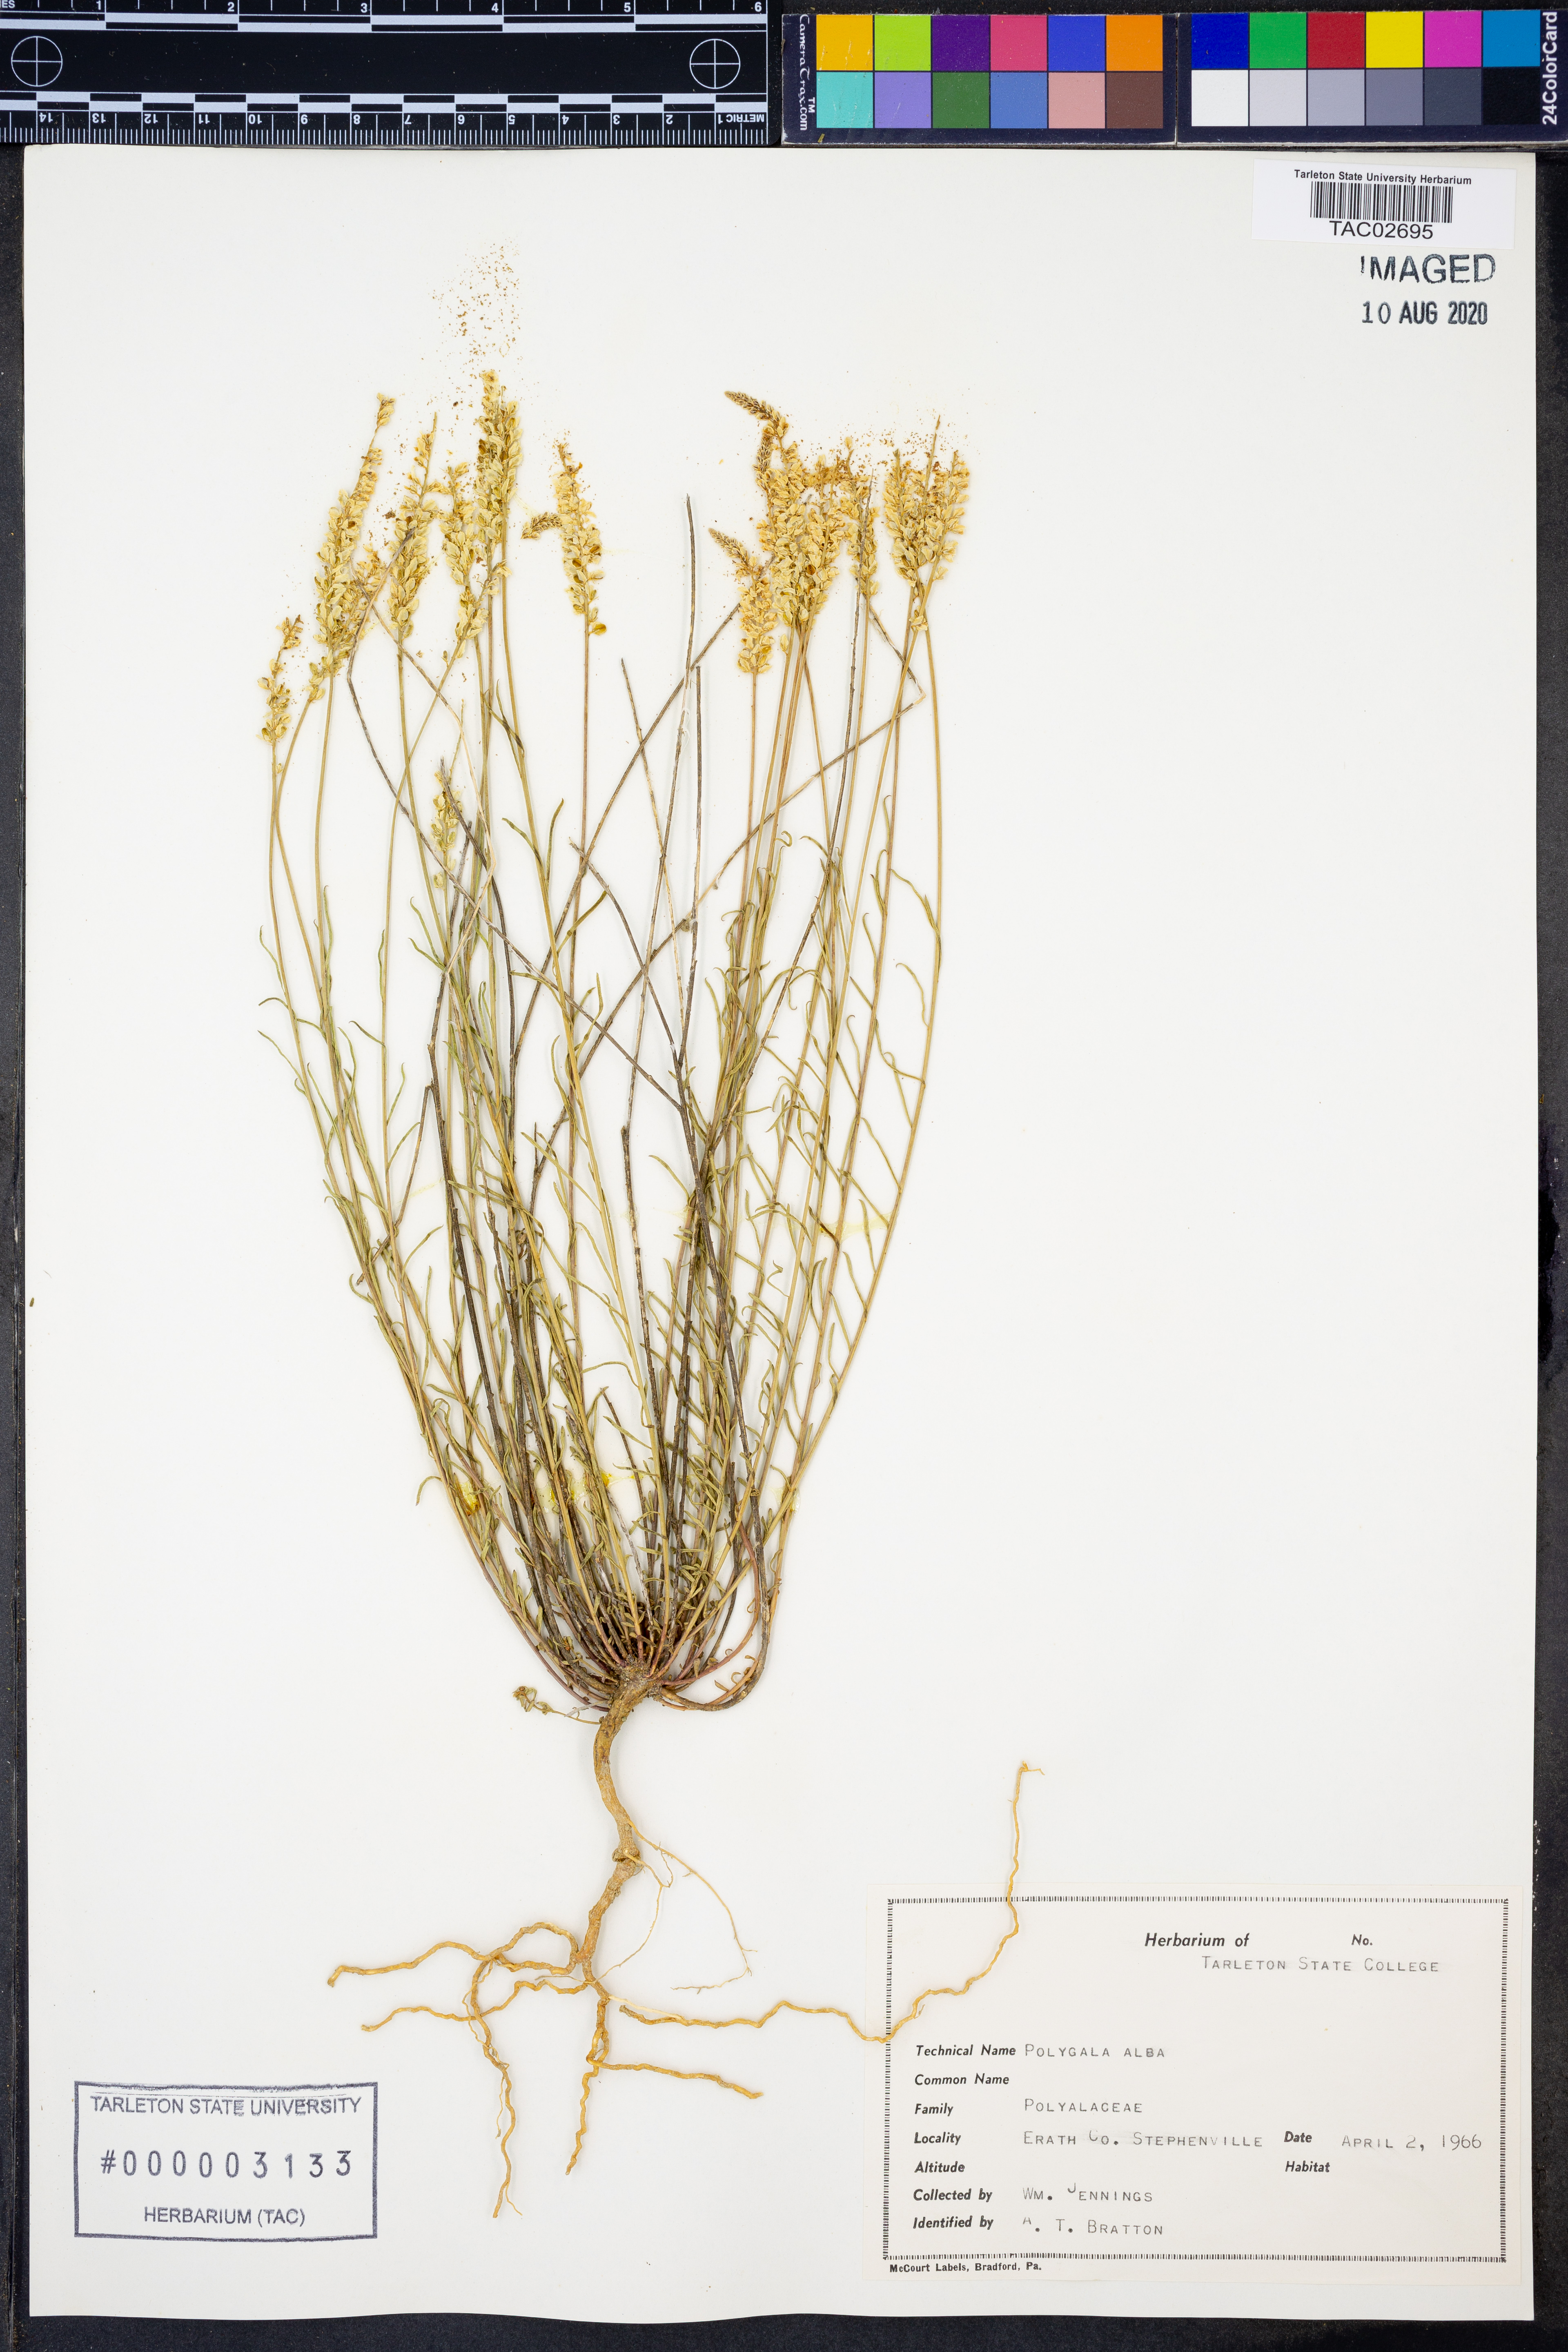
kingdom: Plantae
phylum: Tracheophyta
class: Magnoliopsida
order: Fabales
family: Polygalaceae
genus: Polygala
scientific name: Polygala alba
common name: White milkwort
